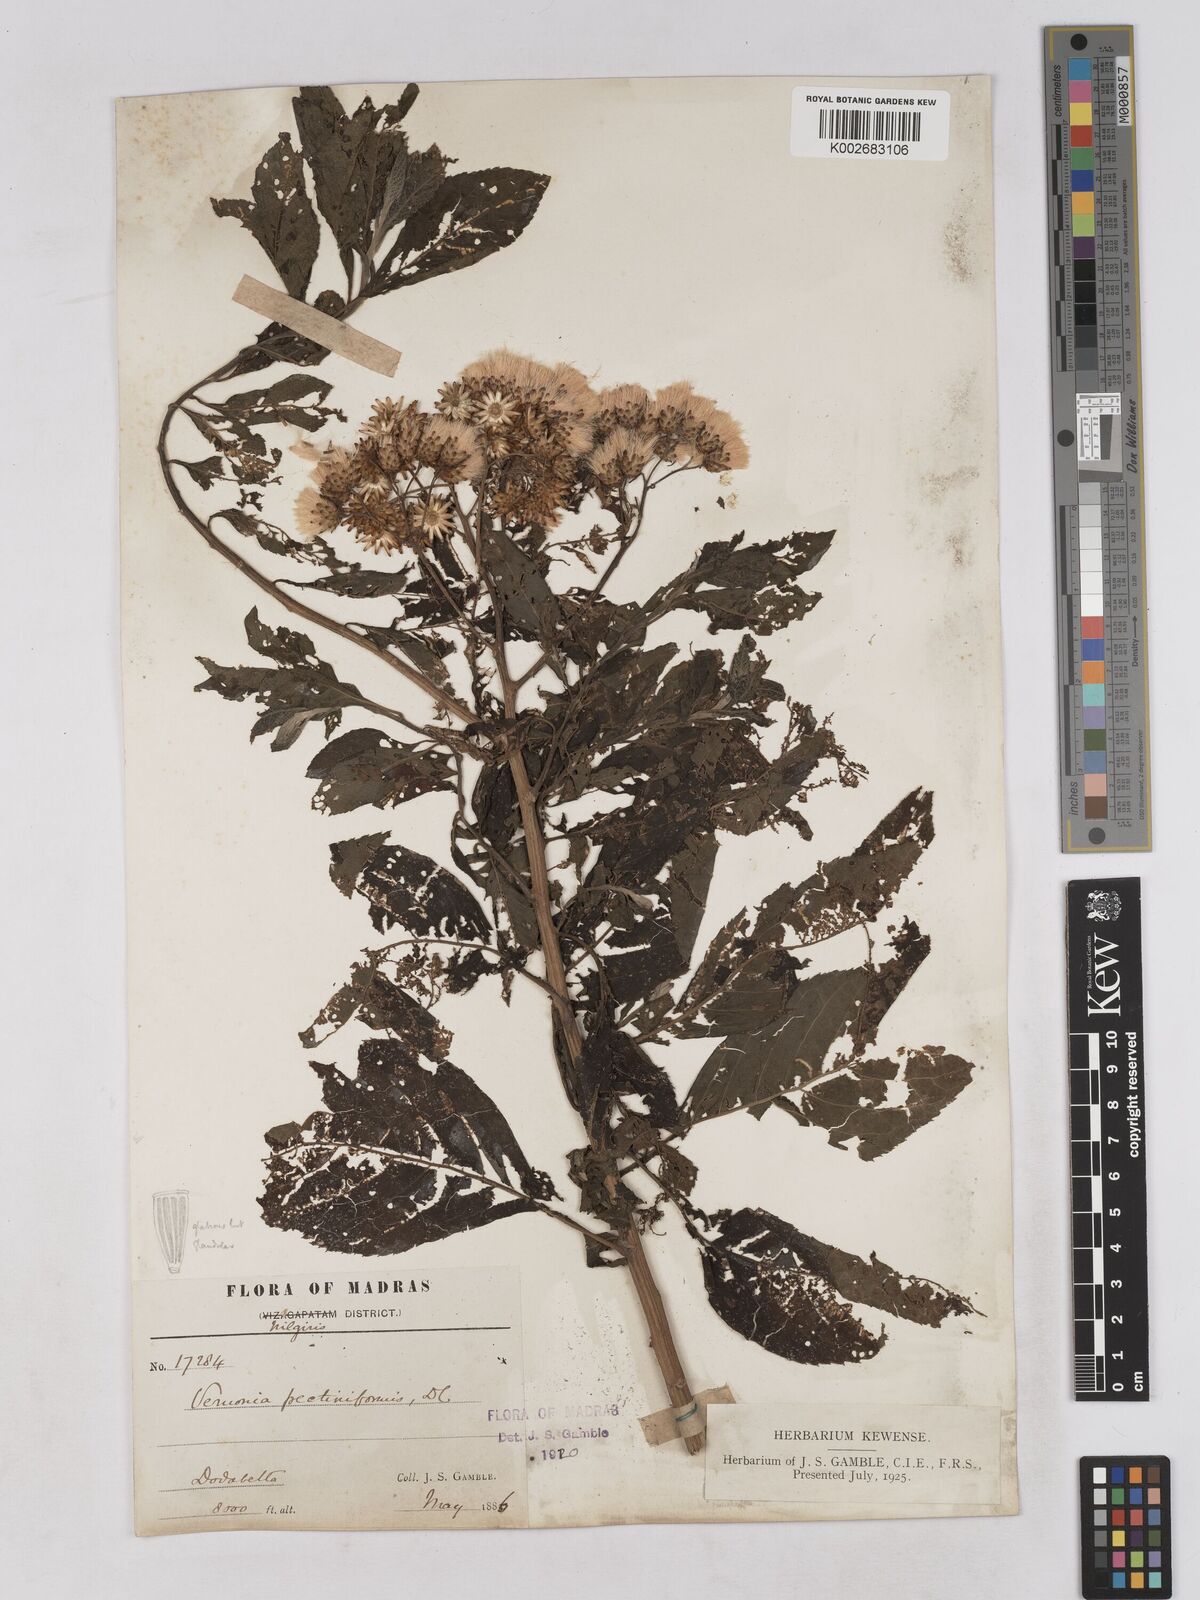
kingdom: Plantae
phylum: Tracheophyta
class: Magnoliopsida
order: Asterales
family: Asteraceae
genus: Gymnanthemum
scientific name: Gymnanthemum pectiniforme
